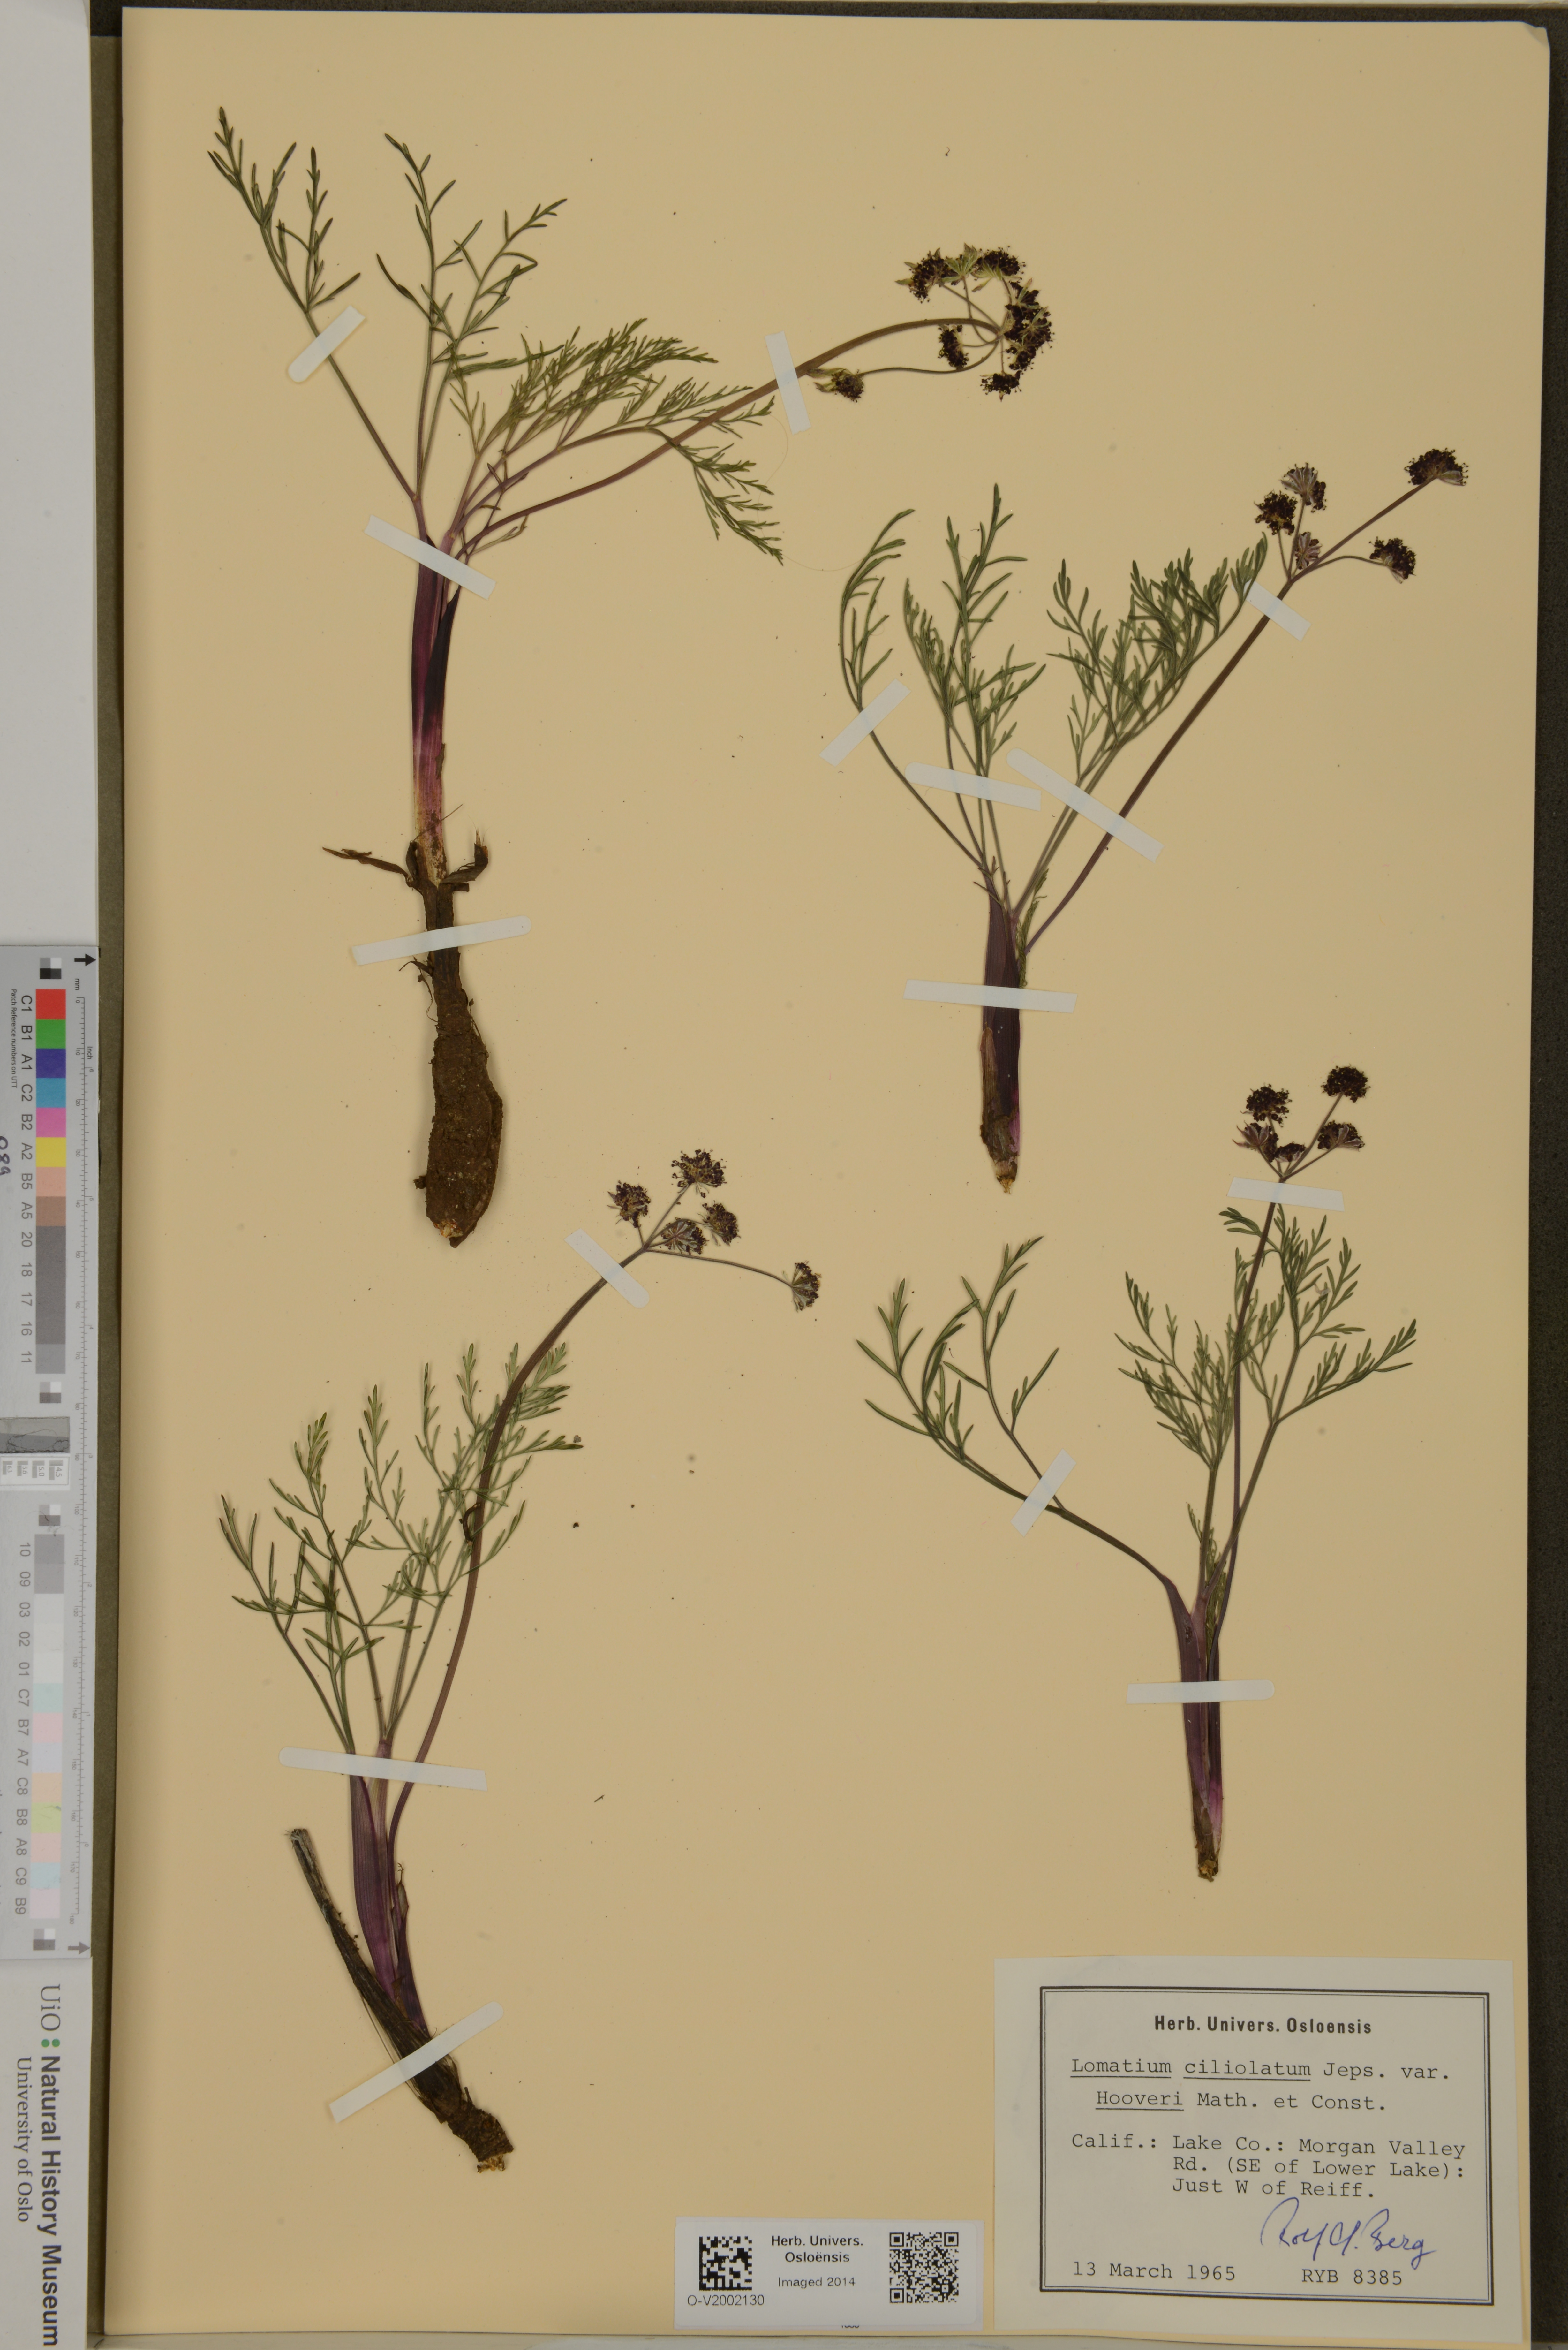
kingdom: Plantae
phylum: Tracheophyta
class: Magnoliopsida
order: Apiales
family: Apiaceae
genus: Lomatium
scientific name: Lomatium hooveri
